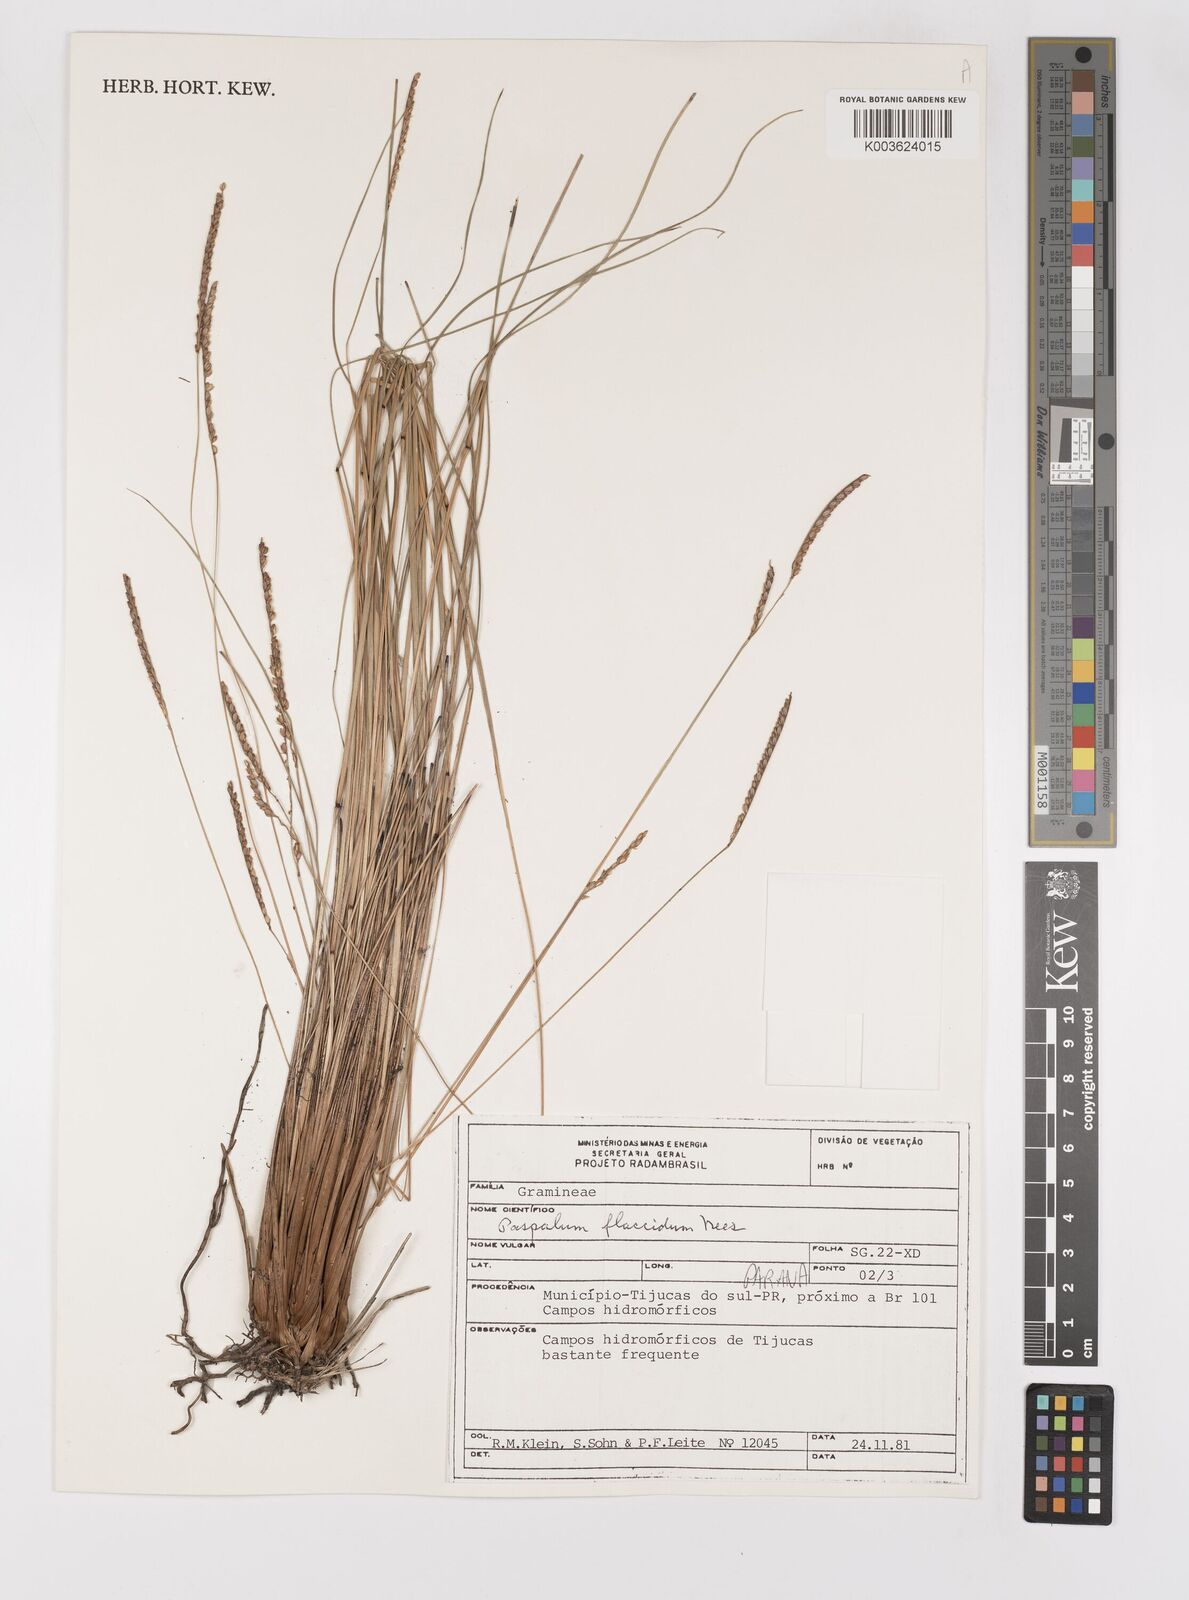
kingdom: Plantae
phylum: Tracheophyta
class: Liliopsida
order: Poales
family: Poaceae
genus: Paspalum
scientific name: Paspalum flaccidum
